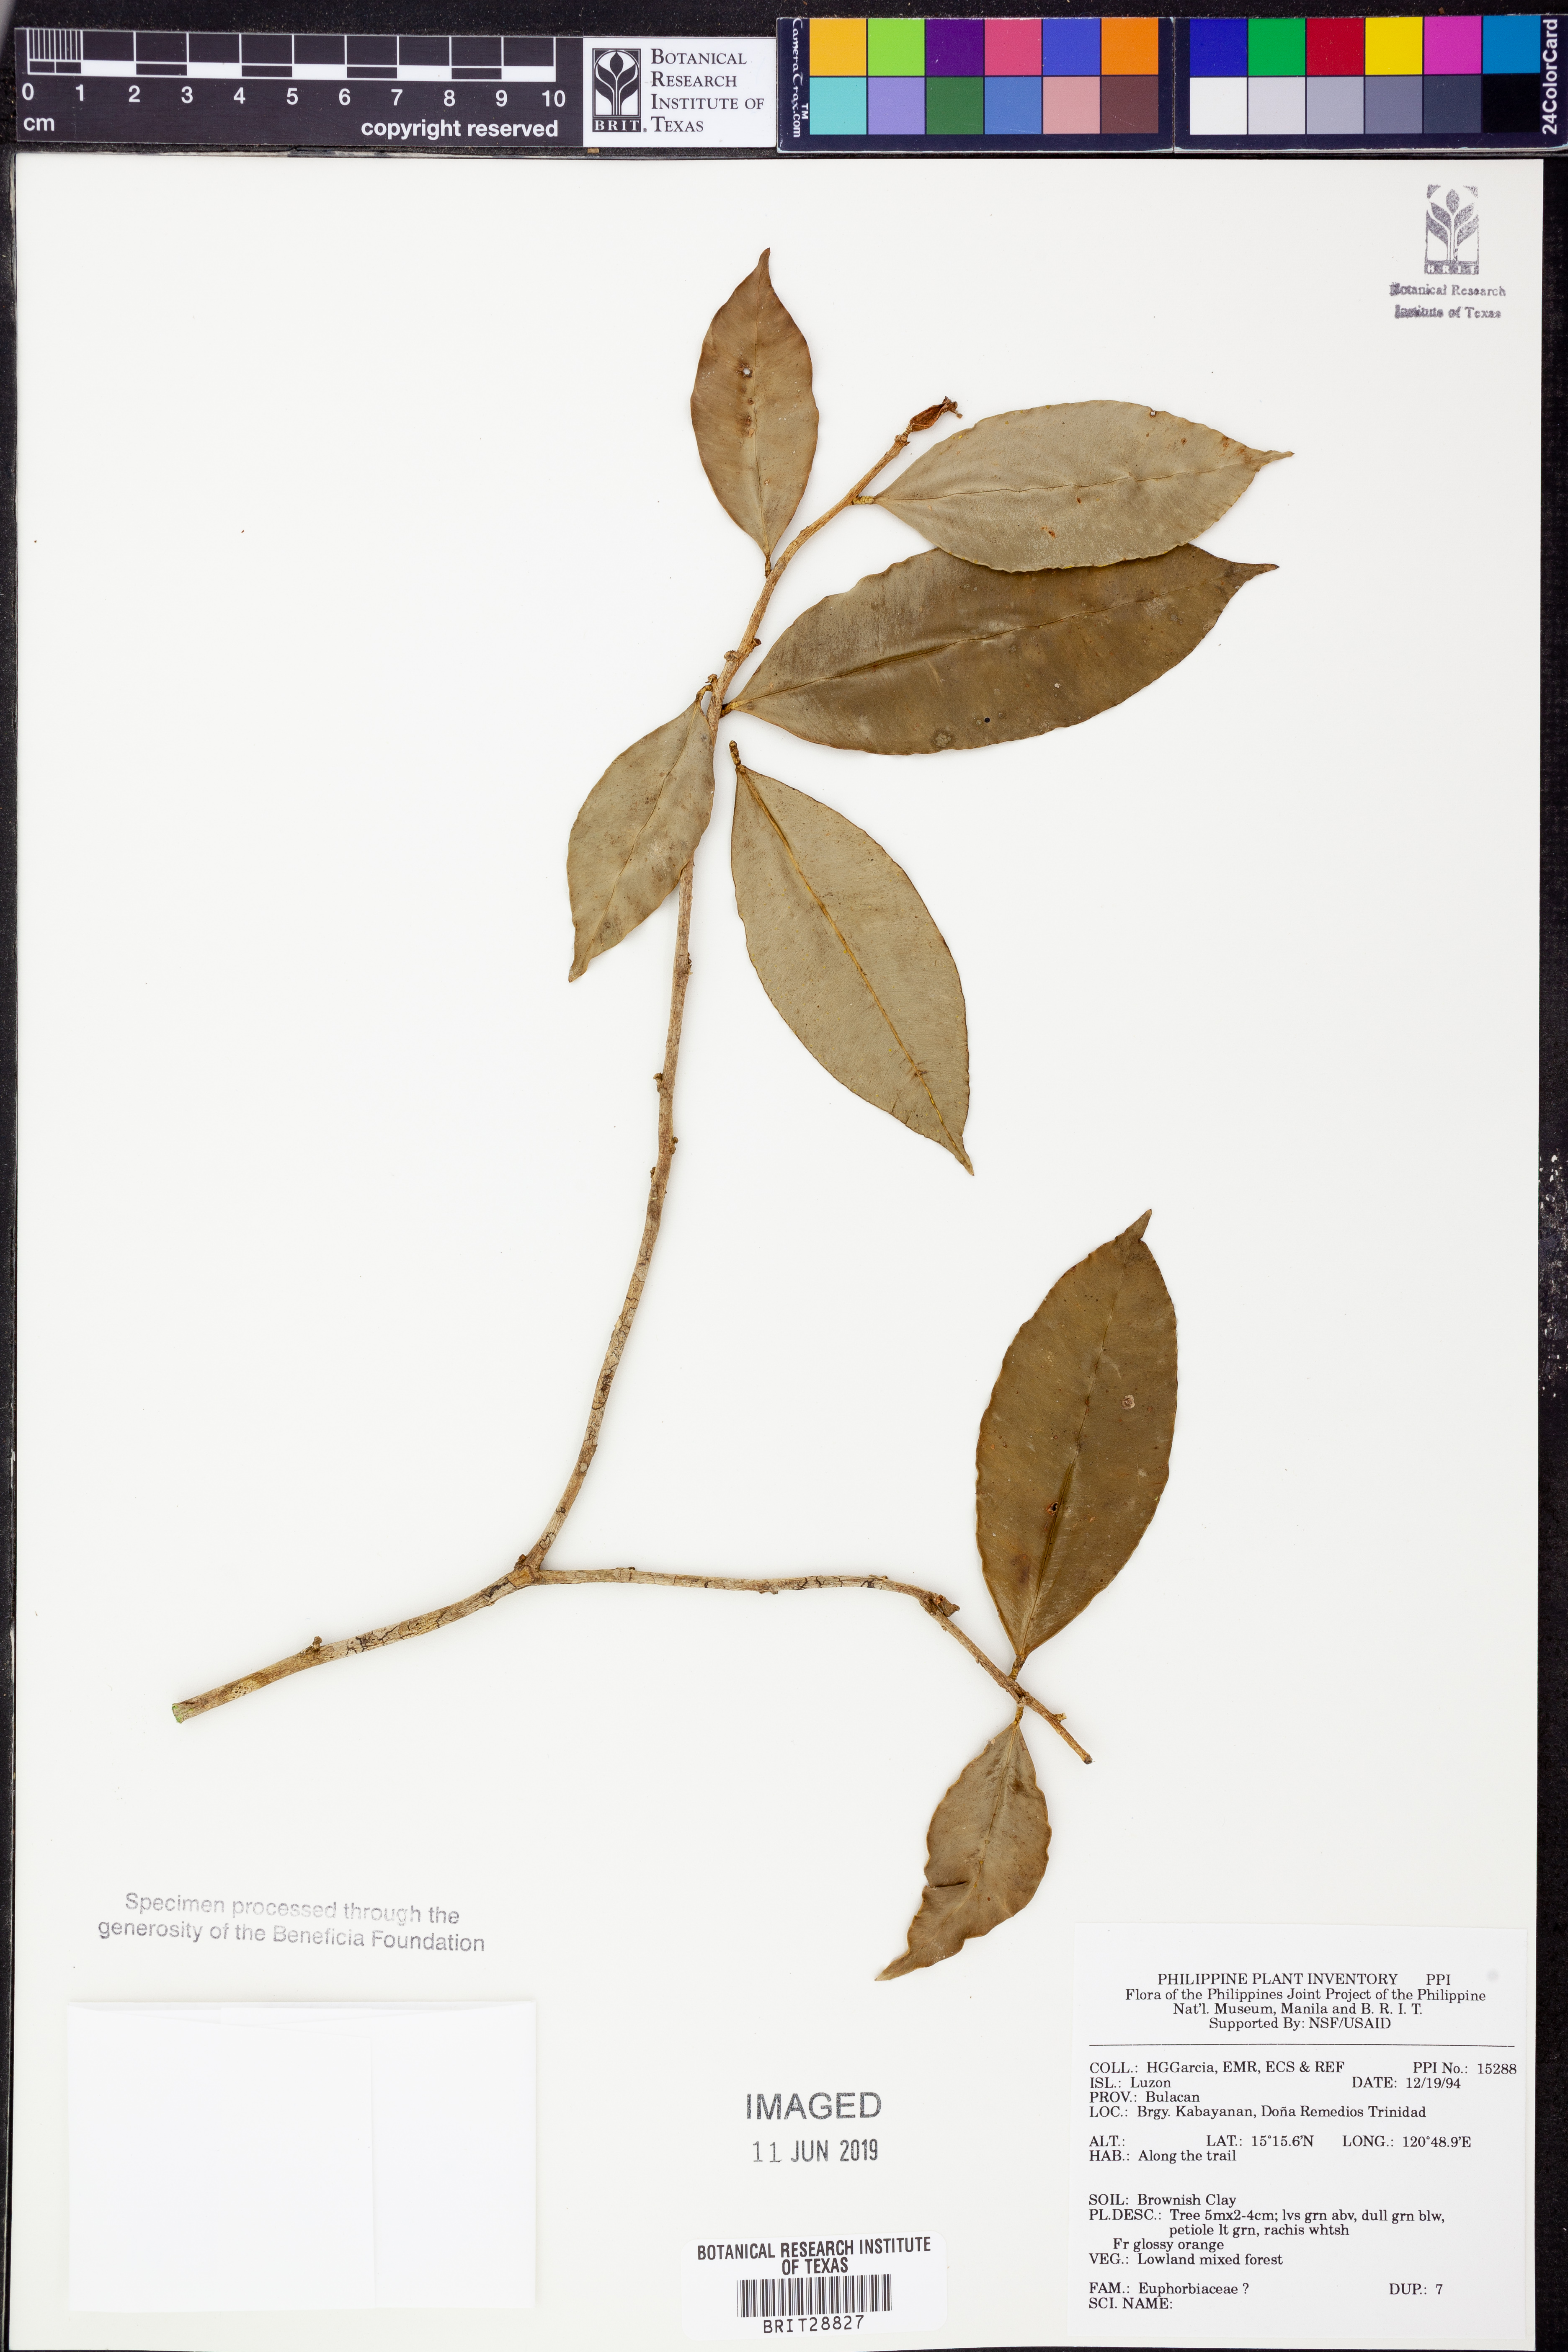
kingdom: Plantae
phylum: Tracheophyta
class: Magnoliopsida
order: Malpighiales
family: Euphorbiaceae
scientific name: Euphorbiaceae
